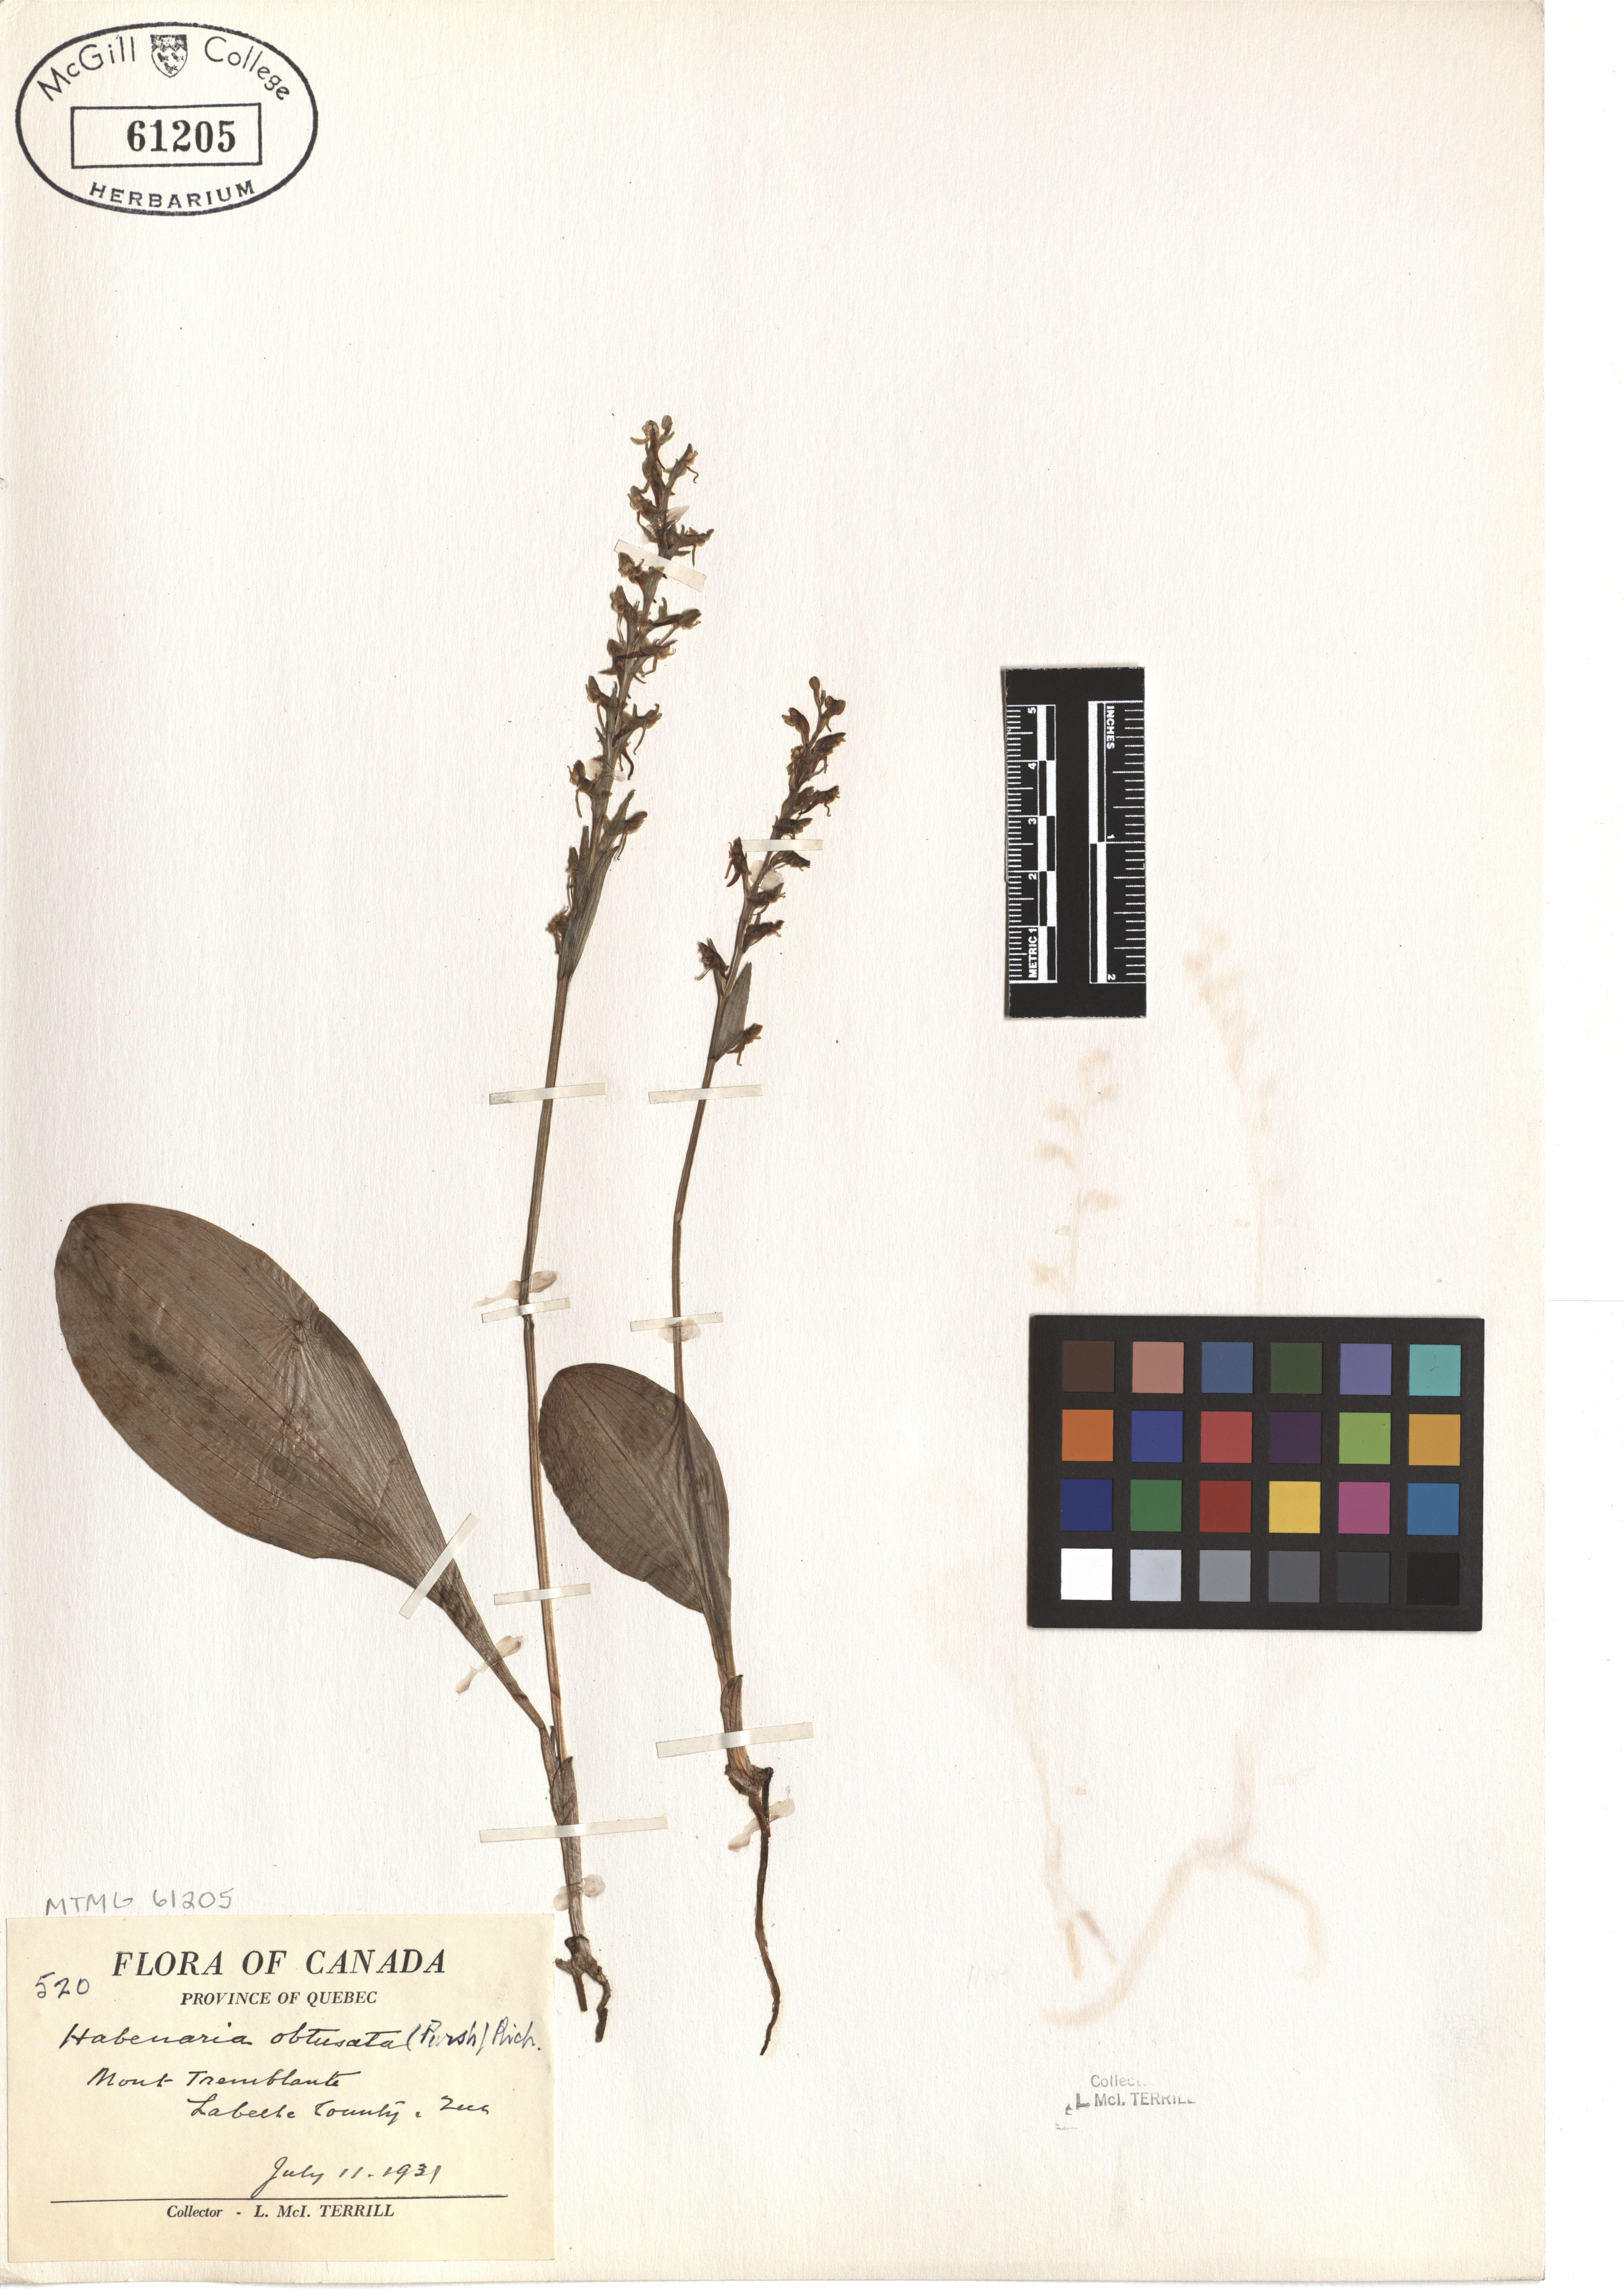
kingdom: Plantae
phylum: Tracheophyta
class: Liliopsida
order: Asparagales
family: Orchidaceae
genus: Platanthera
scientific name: Platanthera obtusata
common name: Blunt bog orchid
